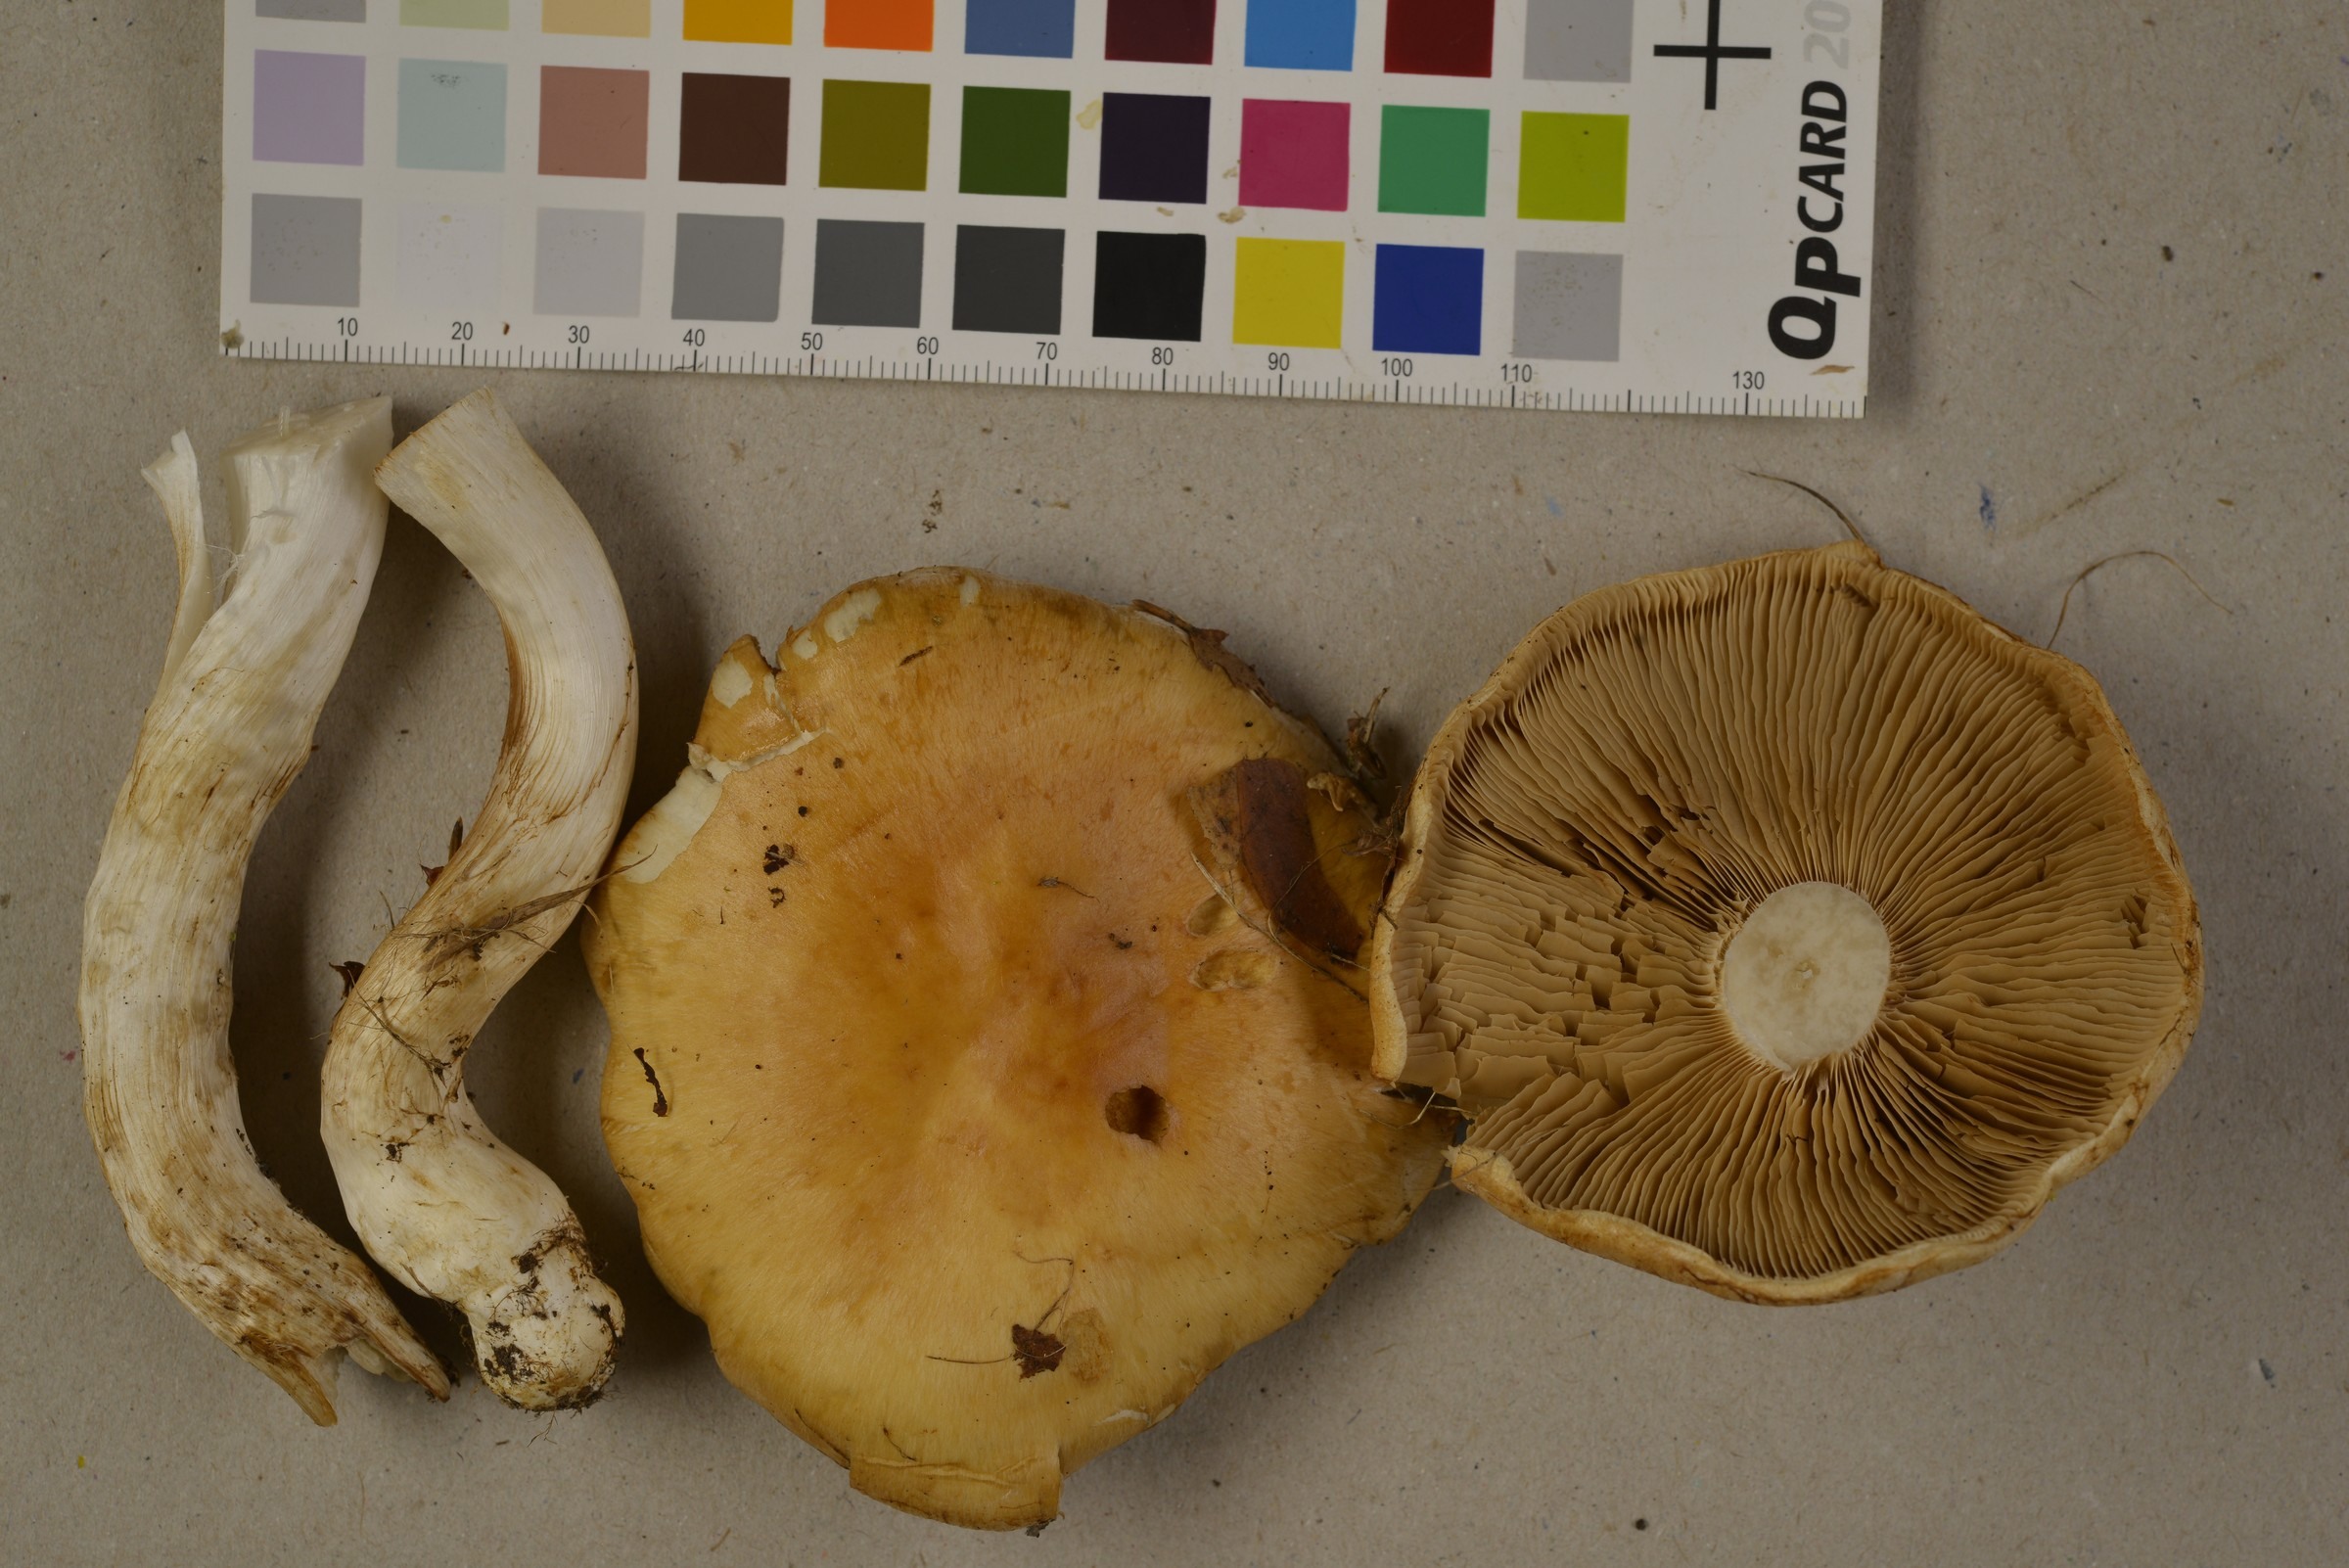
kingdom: Fungi
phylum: Basidiomycota
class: Agaricomycetes
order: Agaricales
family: Cortinariaceae
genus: Thaxterogaster
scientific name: Thaxterogaster turmalis
